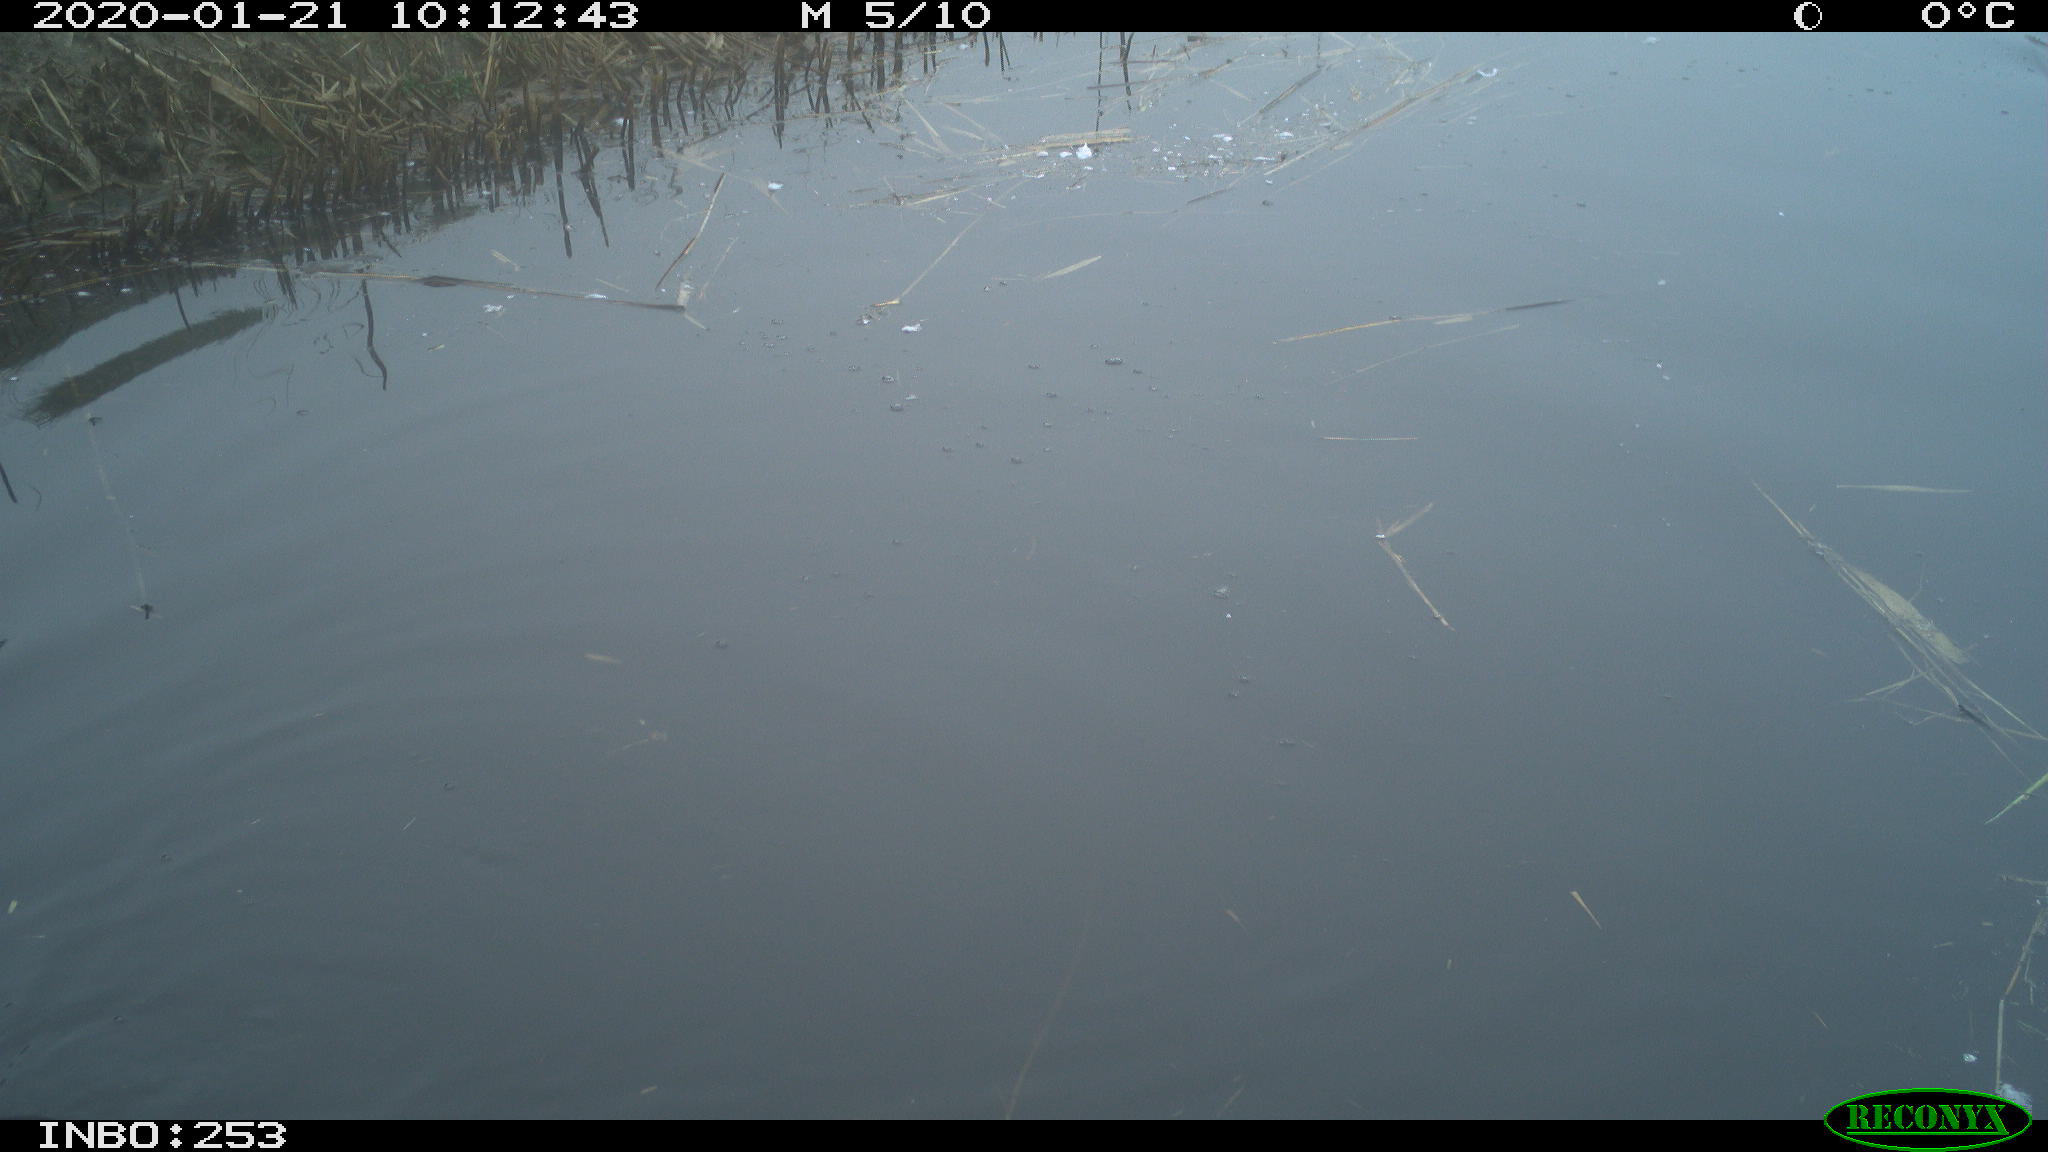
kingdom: Animalia
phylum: Chordata
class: Aves
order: Gruiformes
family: Rallidae
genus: Fulica
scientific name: Fulica atra
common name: Eurasian coot
